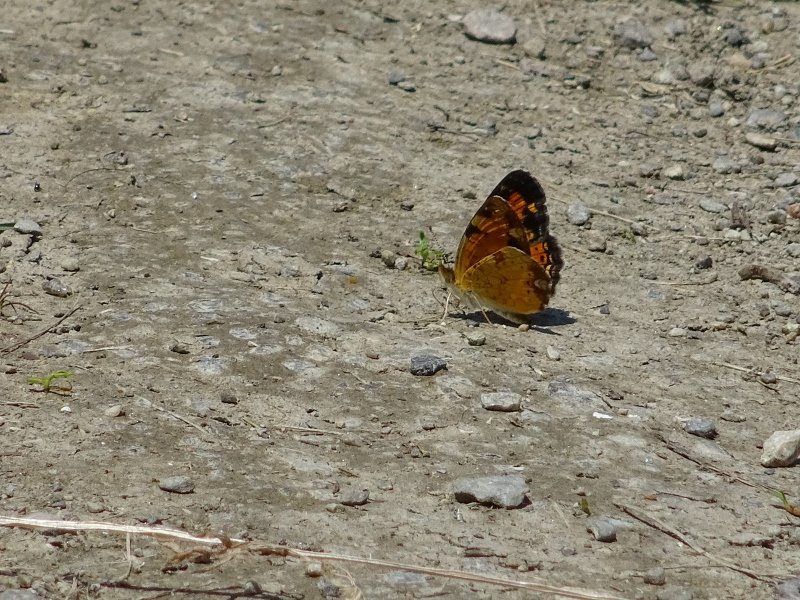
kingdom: Animalia
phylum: Arthropoda
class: Insecta
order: Lepidoptera
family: Nymphalidae
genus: Phyciodes
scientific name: Phyciodes tharos
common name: Northern Crescent
